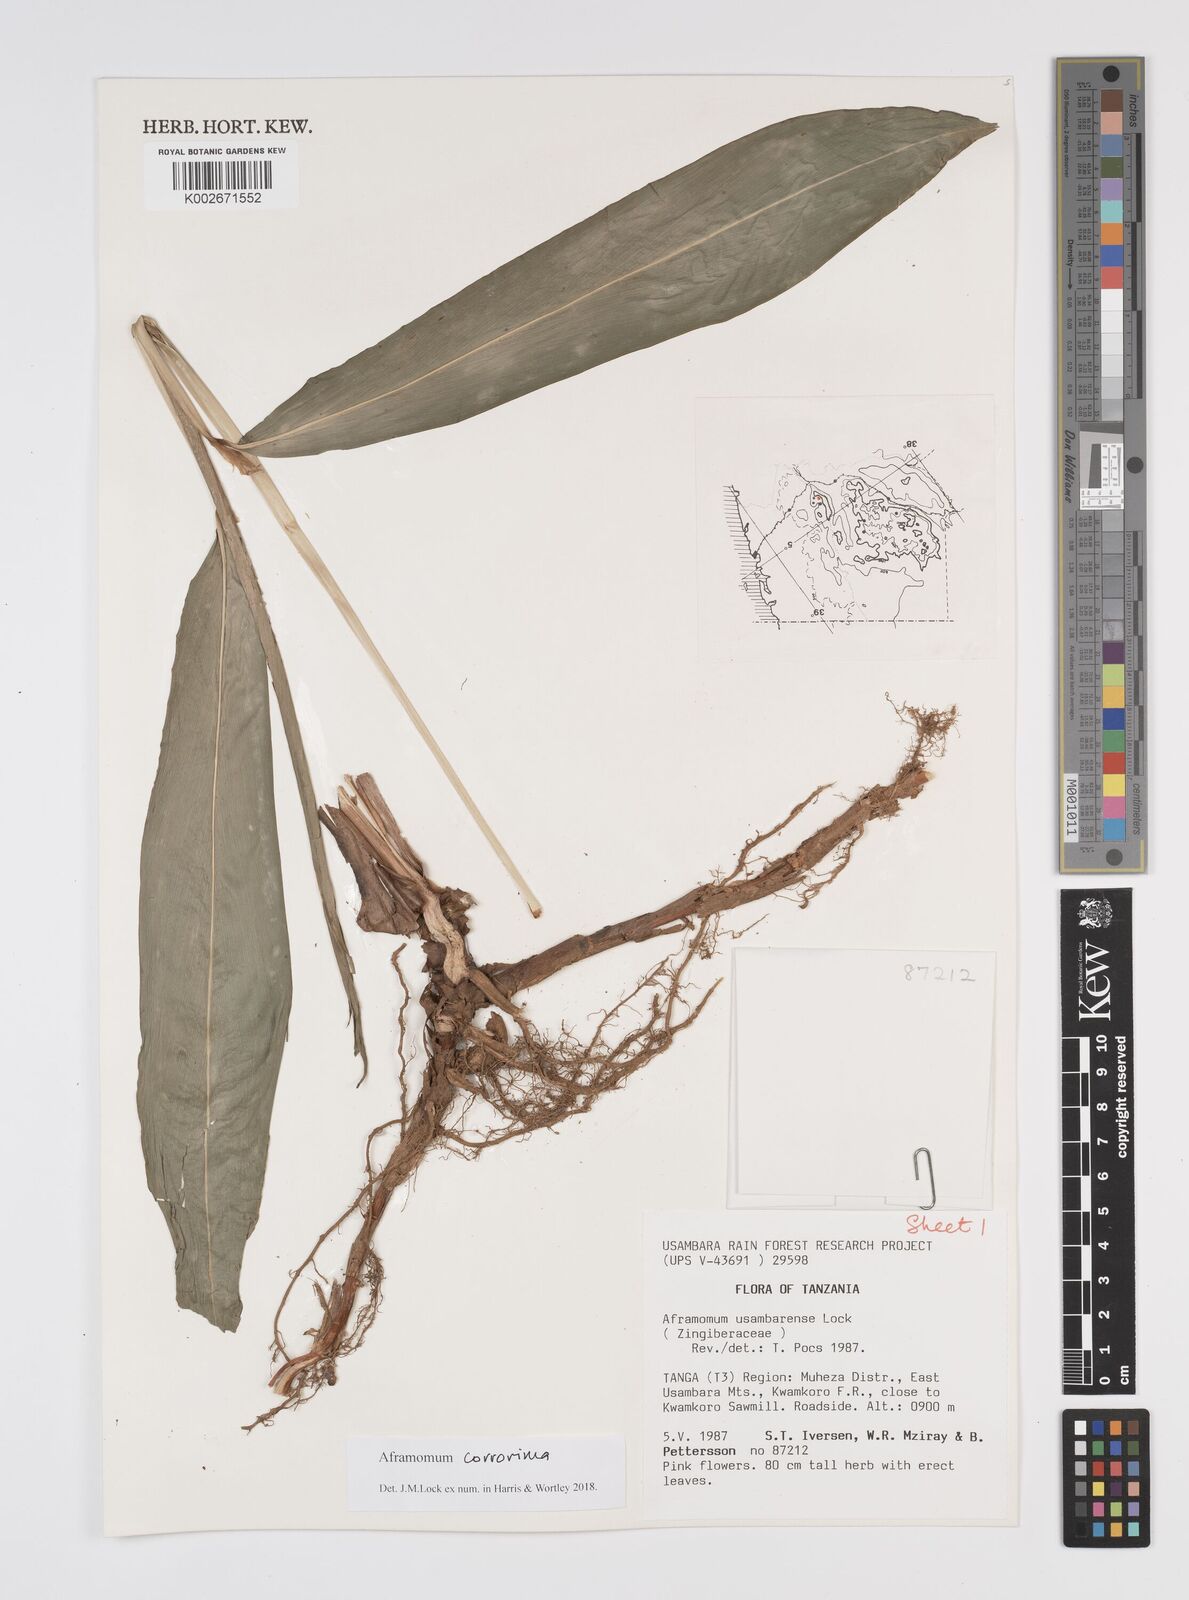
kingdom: Plantae
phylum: Tracheophyta
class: Liliopsida
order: Zingiberales
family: Zingiberaceae
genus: Aframomum
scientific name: Aframomum corrorima
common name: Ethiopian cardamom
